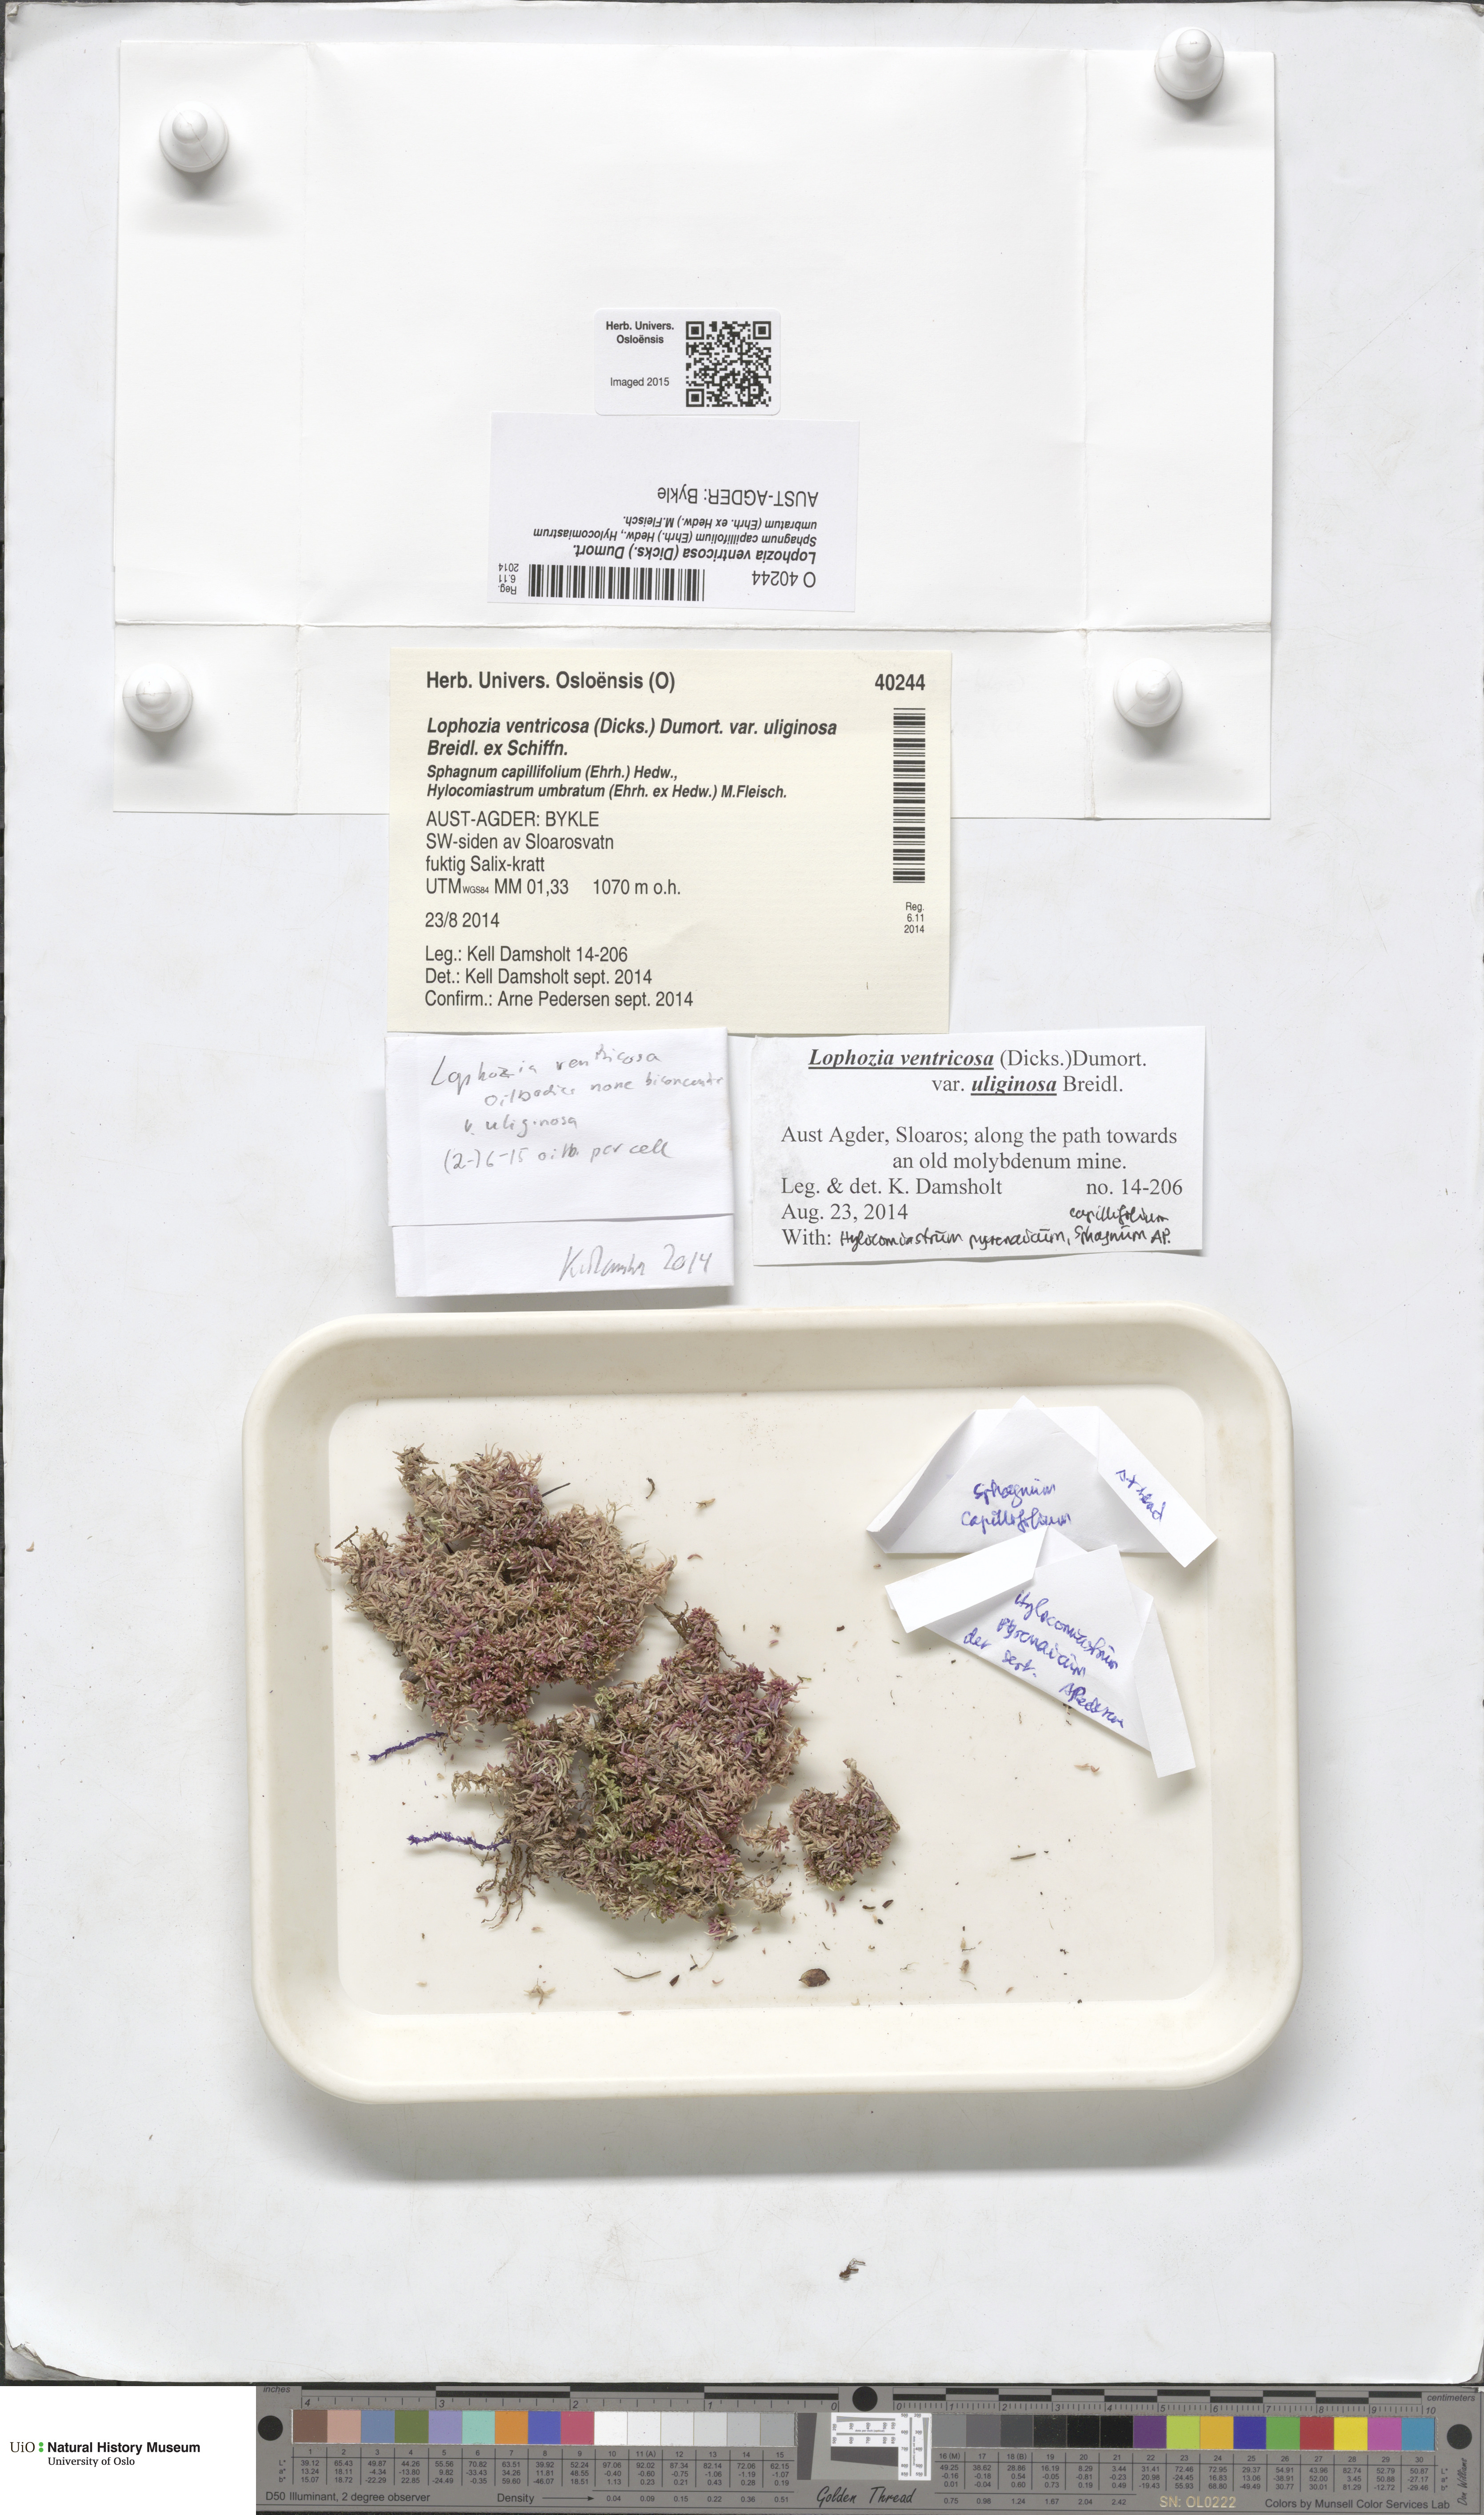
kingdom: Plantae
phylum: Marchantiophyta
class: Jungermanniopsida
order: Jungermanniales
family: Lophoziaceae
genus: Lophozia
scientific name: Lophozia ventricosa
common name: Tumid notchwort
